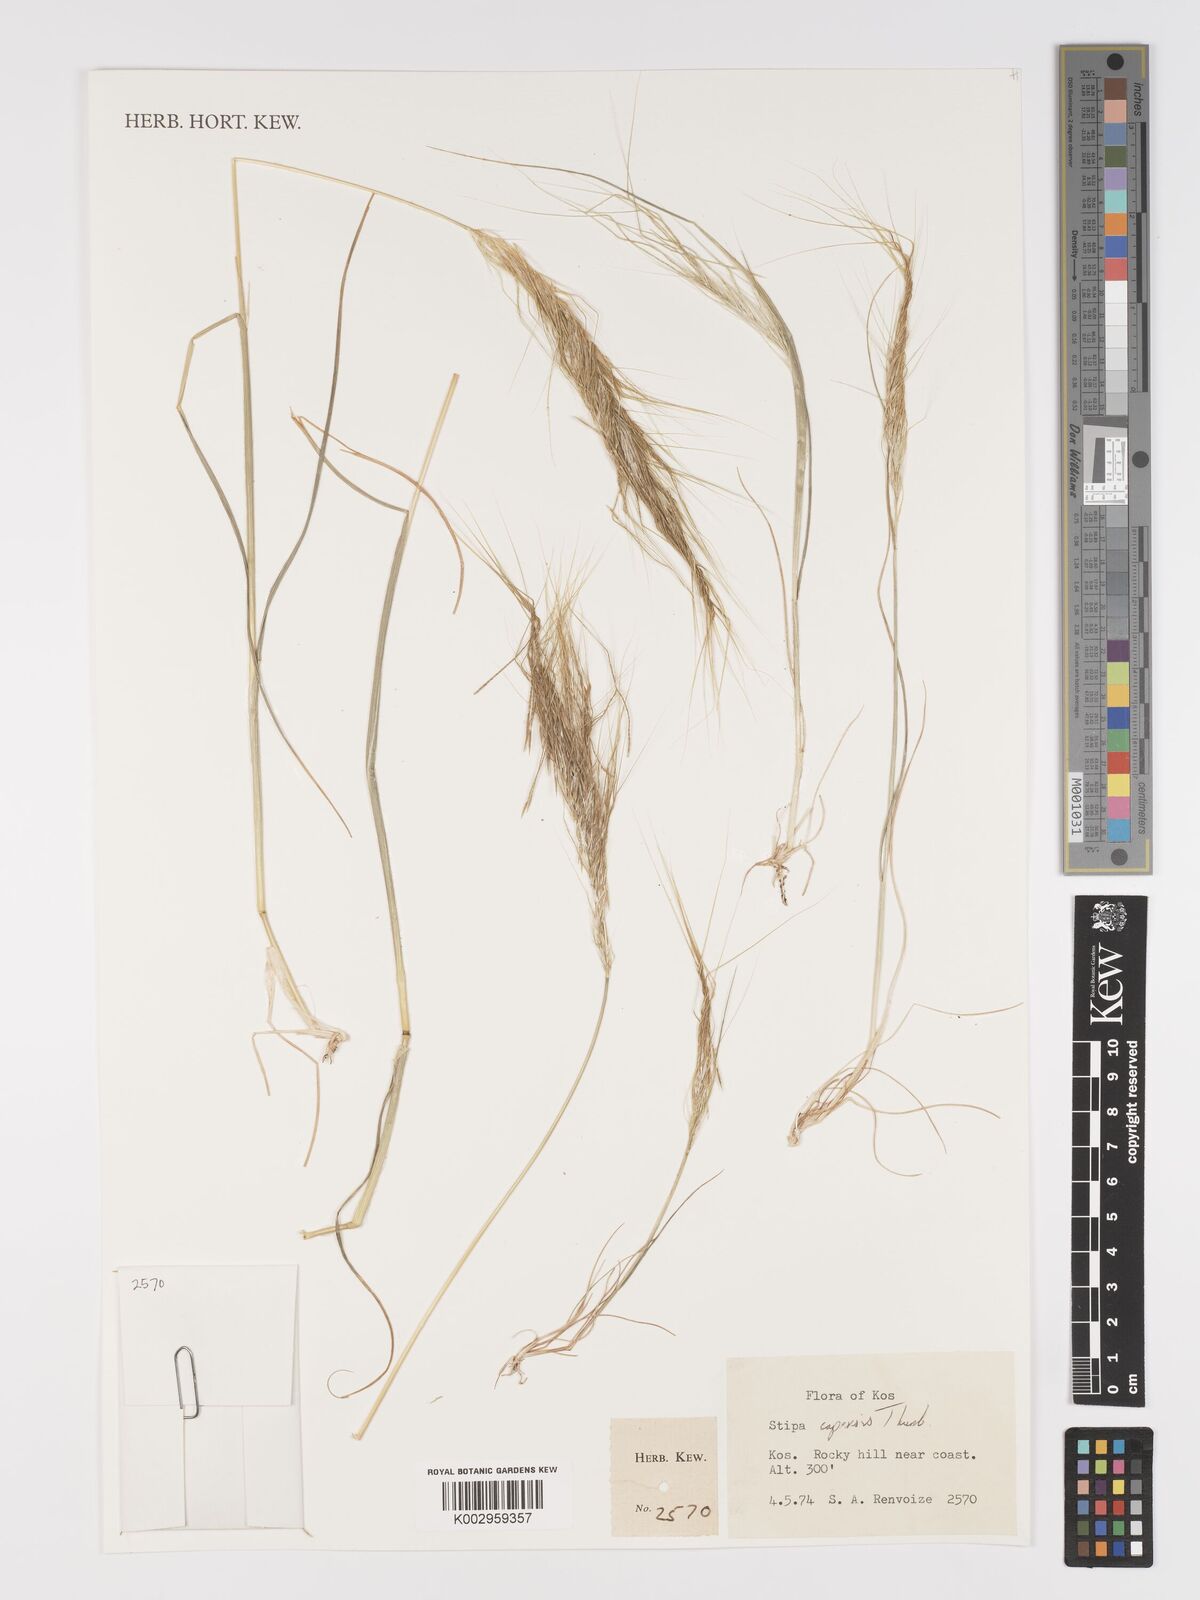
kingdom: Plantae
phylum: Tracheophyta
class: Liliopsida
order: Poales
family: Poaceae
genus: Stipellula
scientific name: Stipellula capensis
